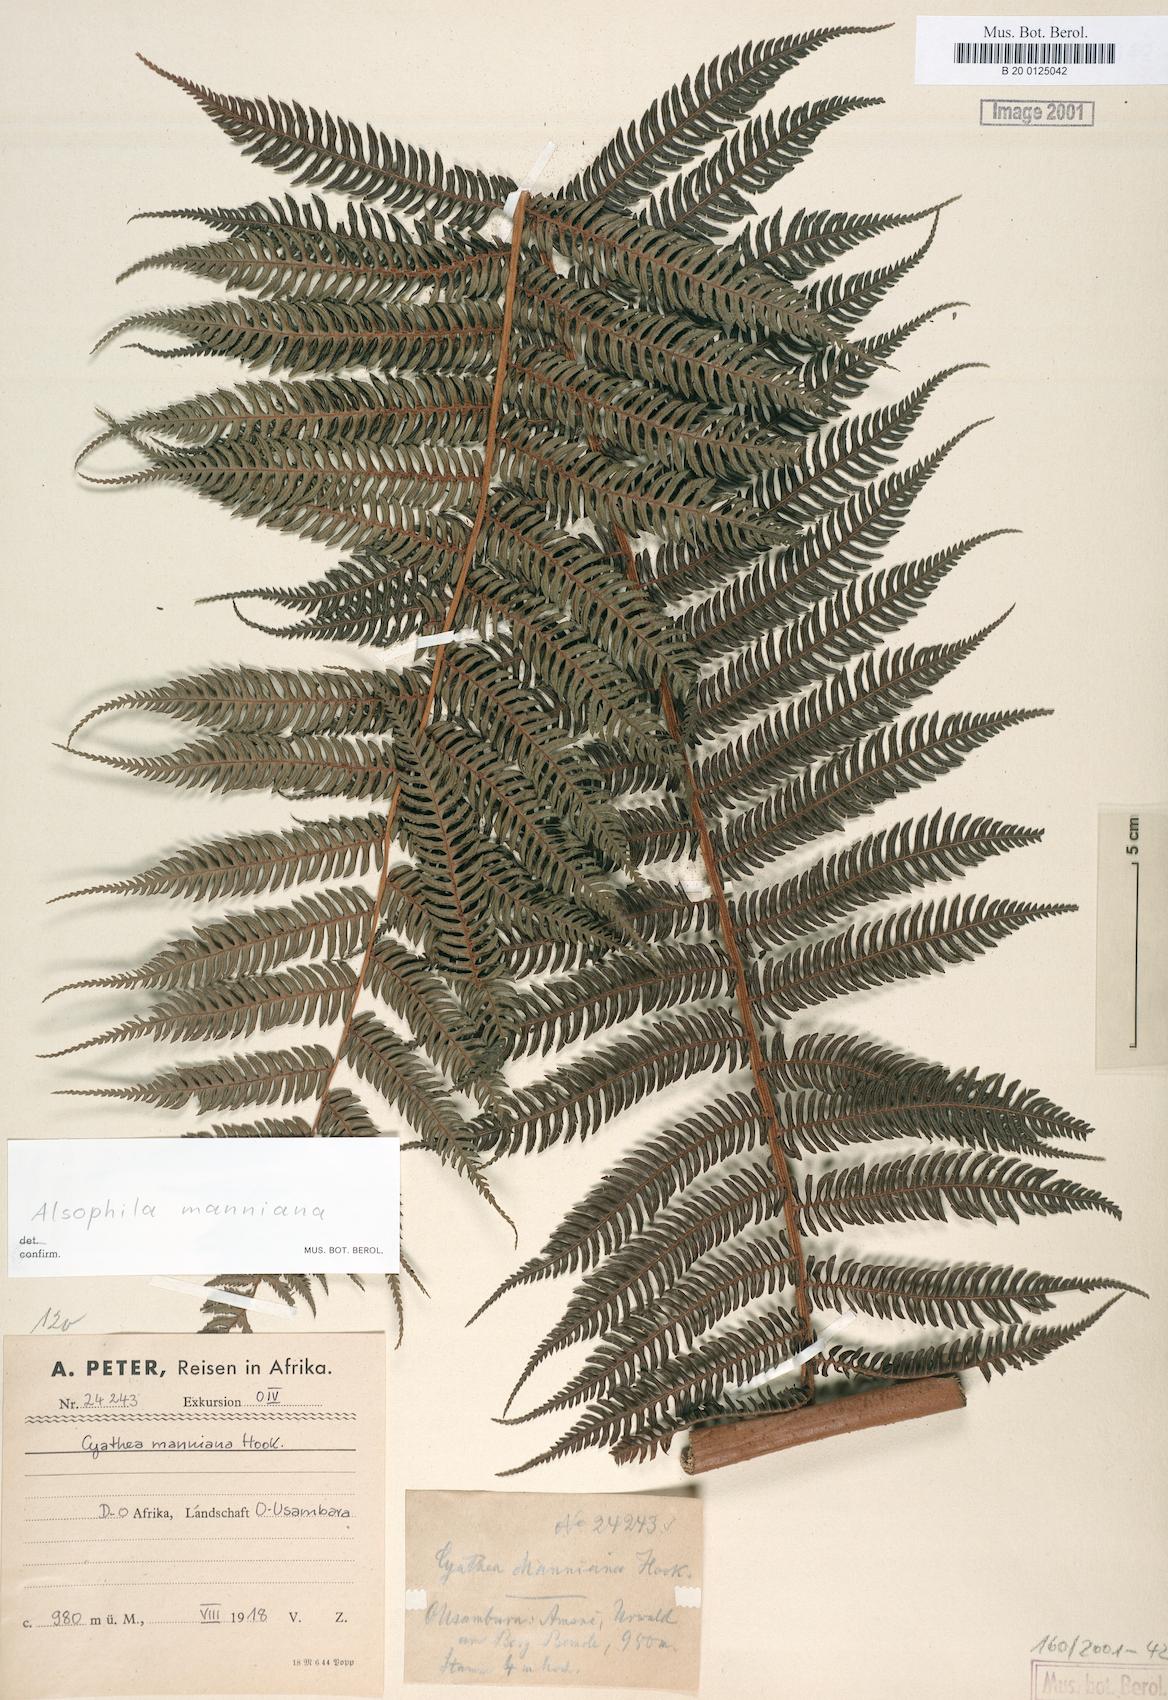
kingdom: Plantae
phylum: Tracheophyta
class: Polypodiopsida
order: Cyatheales
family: Cyatheaceae
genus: Alsophila
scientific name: Alsophila manniana
